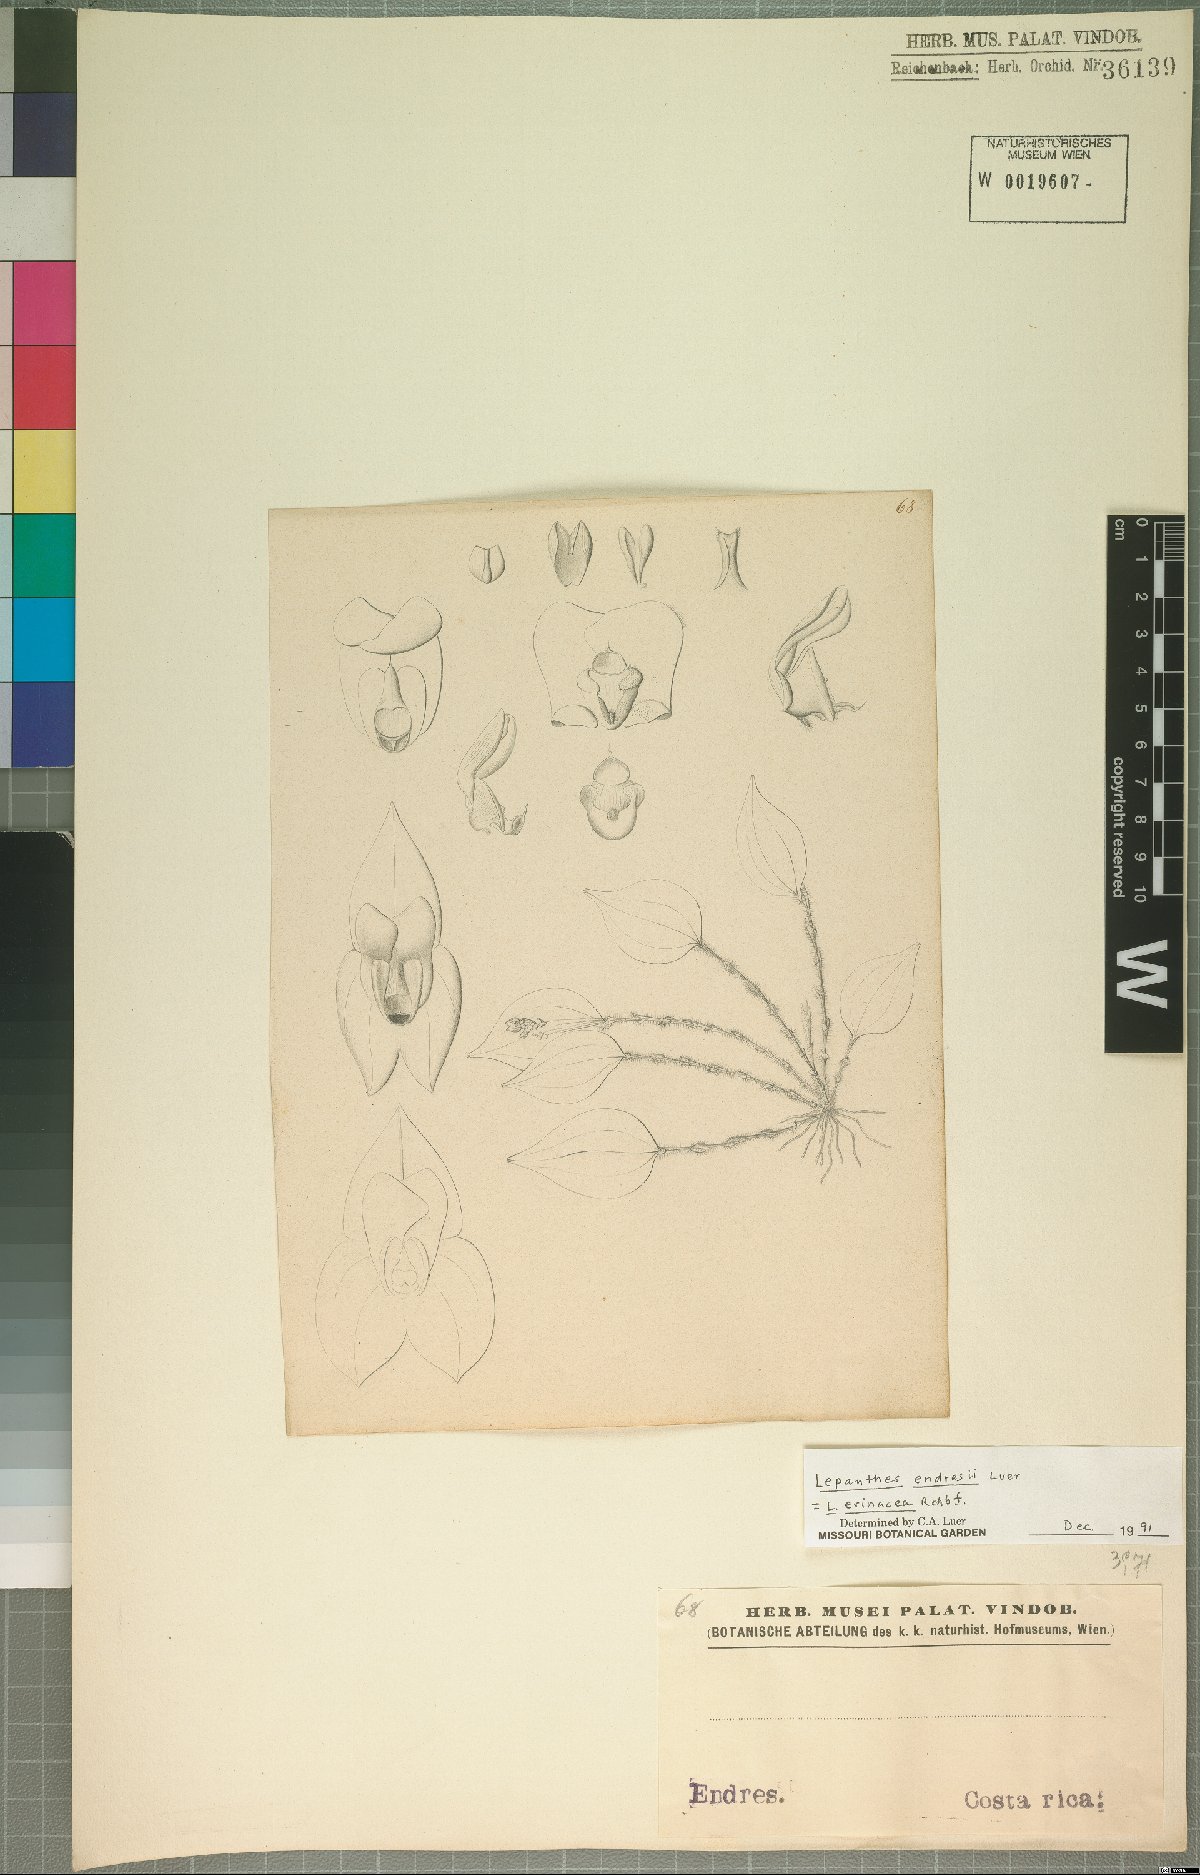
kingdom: Plantae
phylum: Tracheophyta
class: Liliopsida
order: Asparagales
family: Orchidaceae
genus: Lepanthes
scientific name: Lepanthes erinacea
